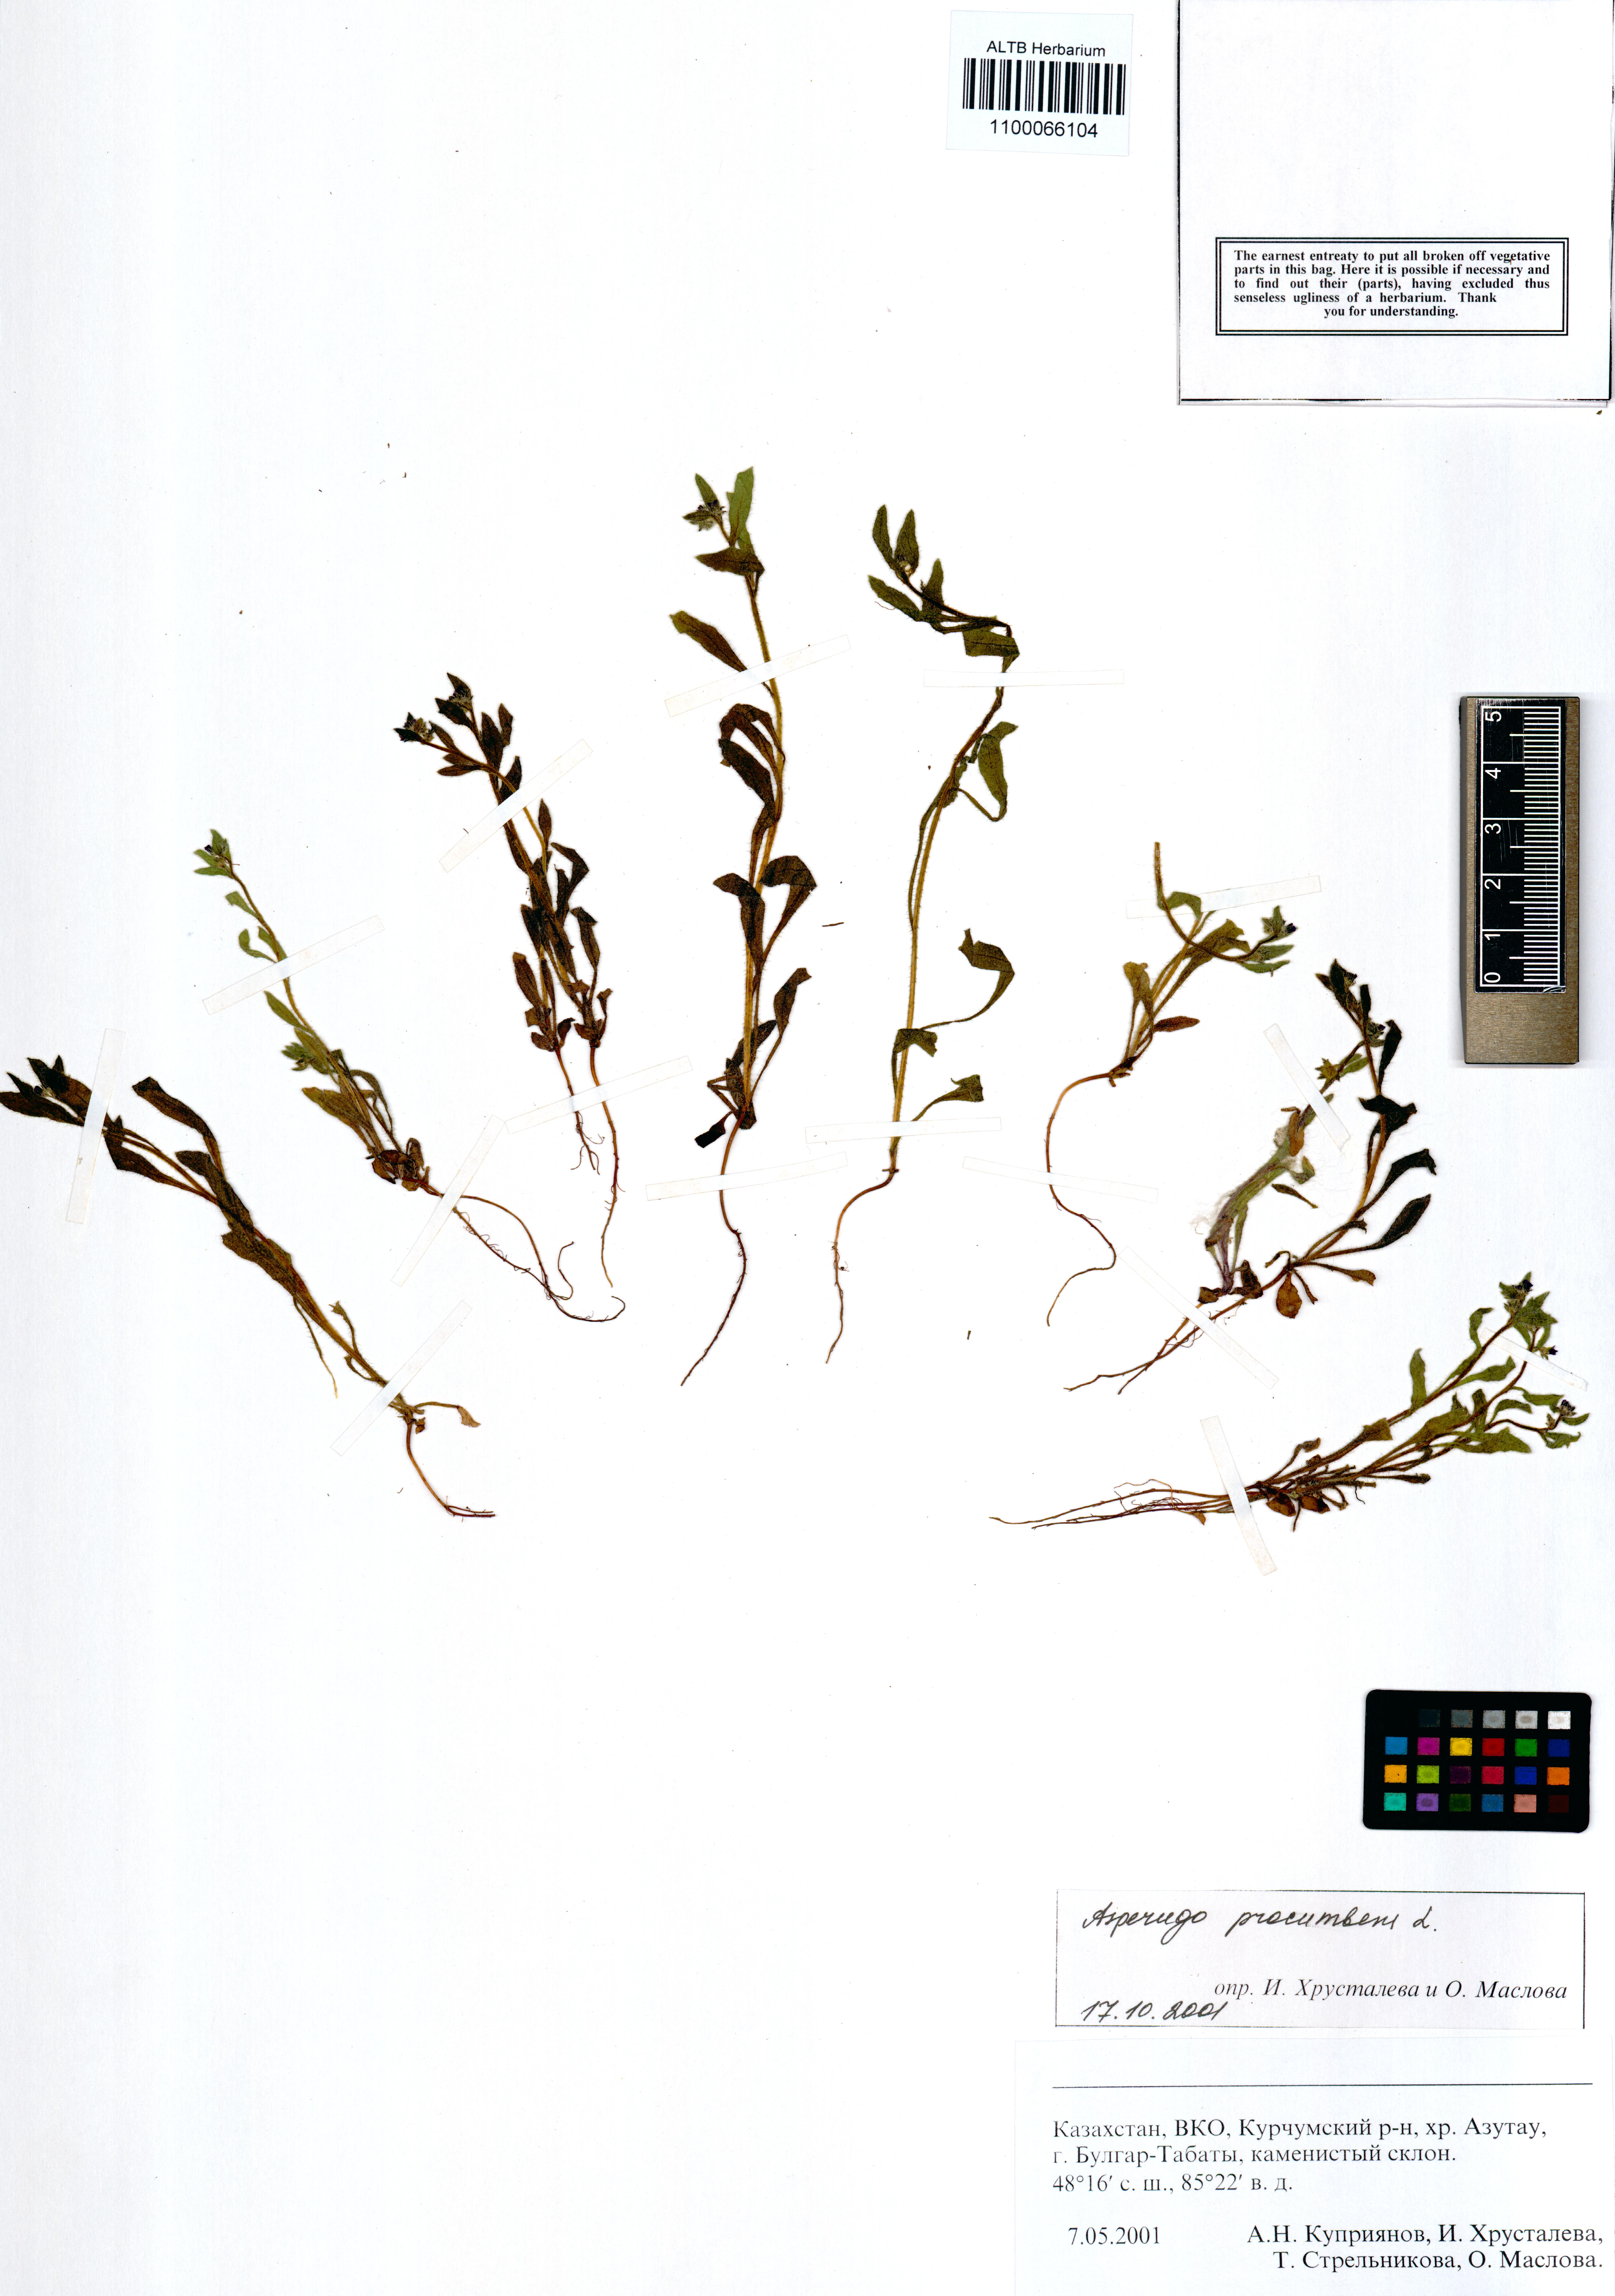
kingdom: Plantae
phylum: Tracheophyta
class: Magnoliopsida
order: Boraginales
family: Boraginaceae
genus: Asperugo
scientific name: Asperugo procumbens
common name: Madwort
